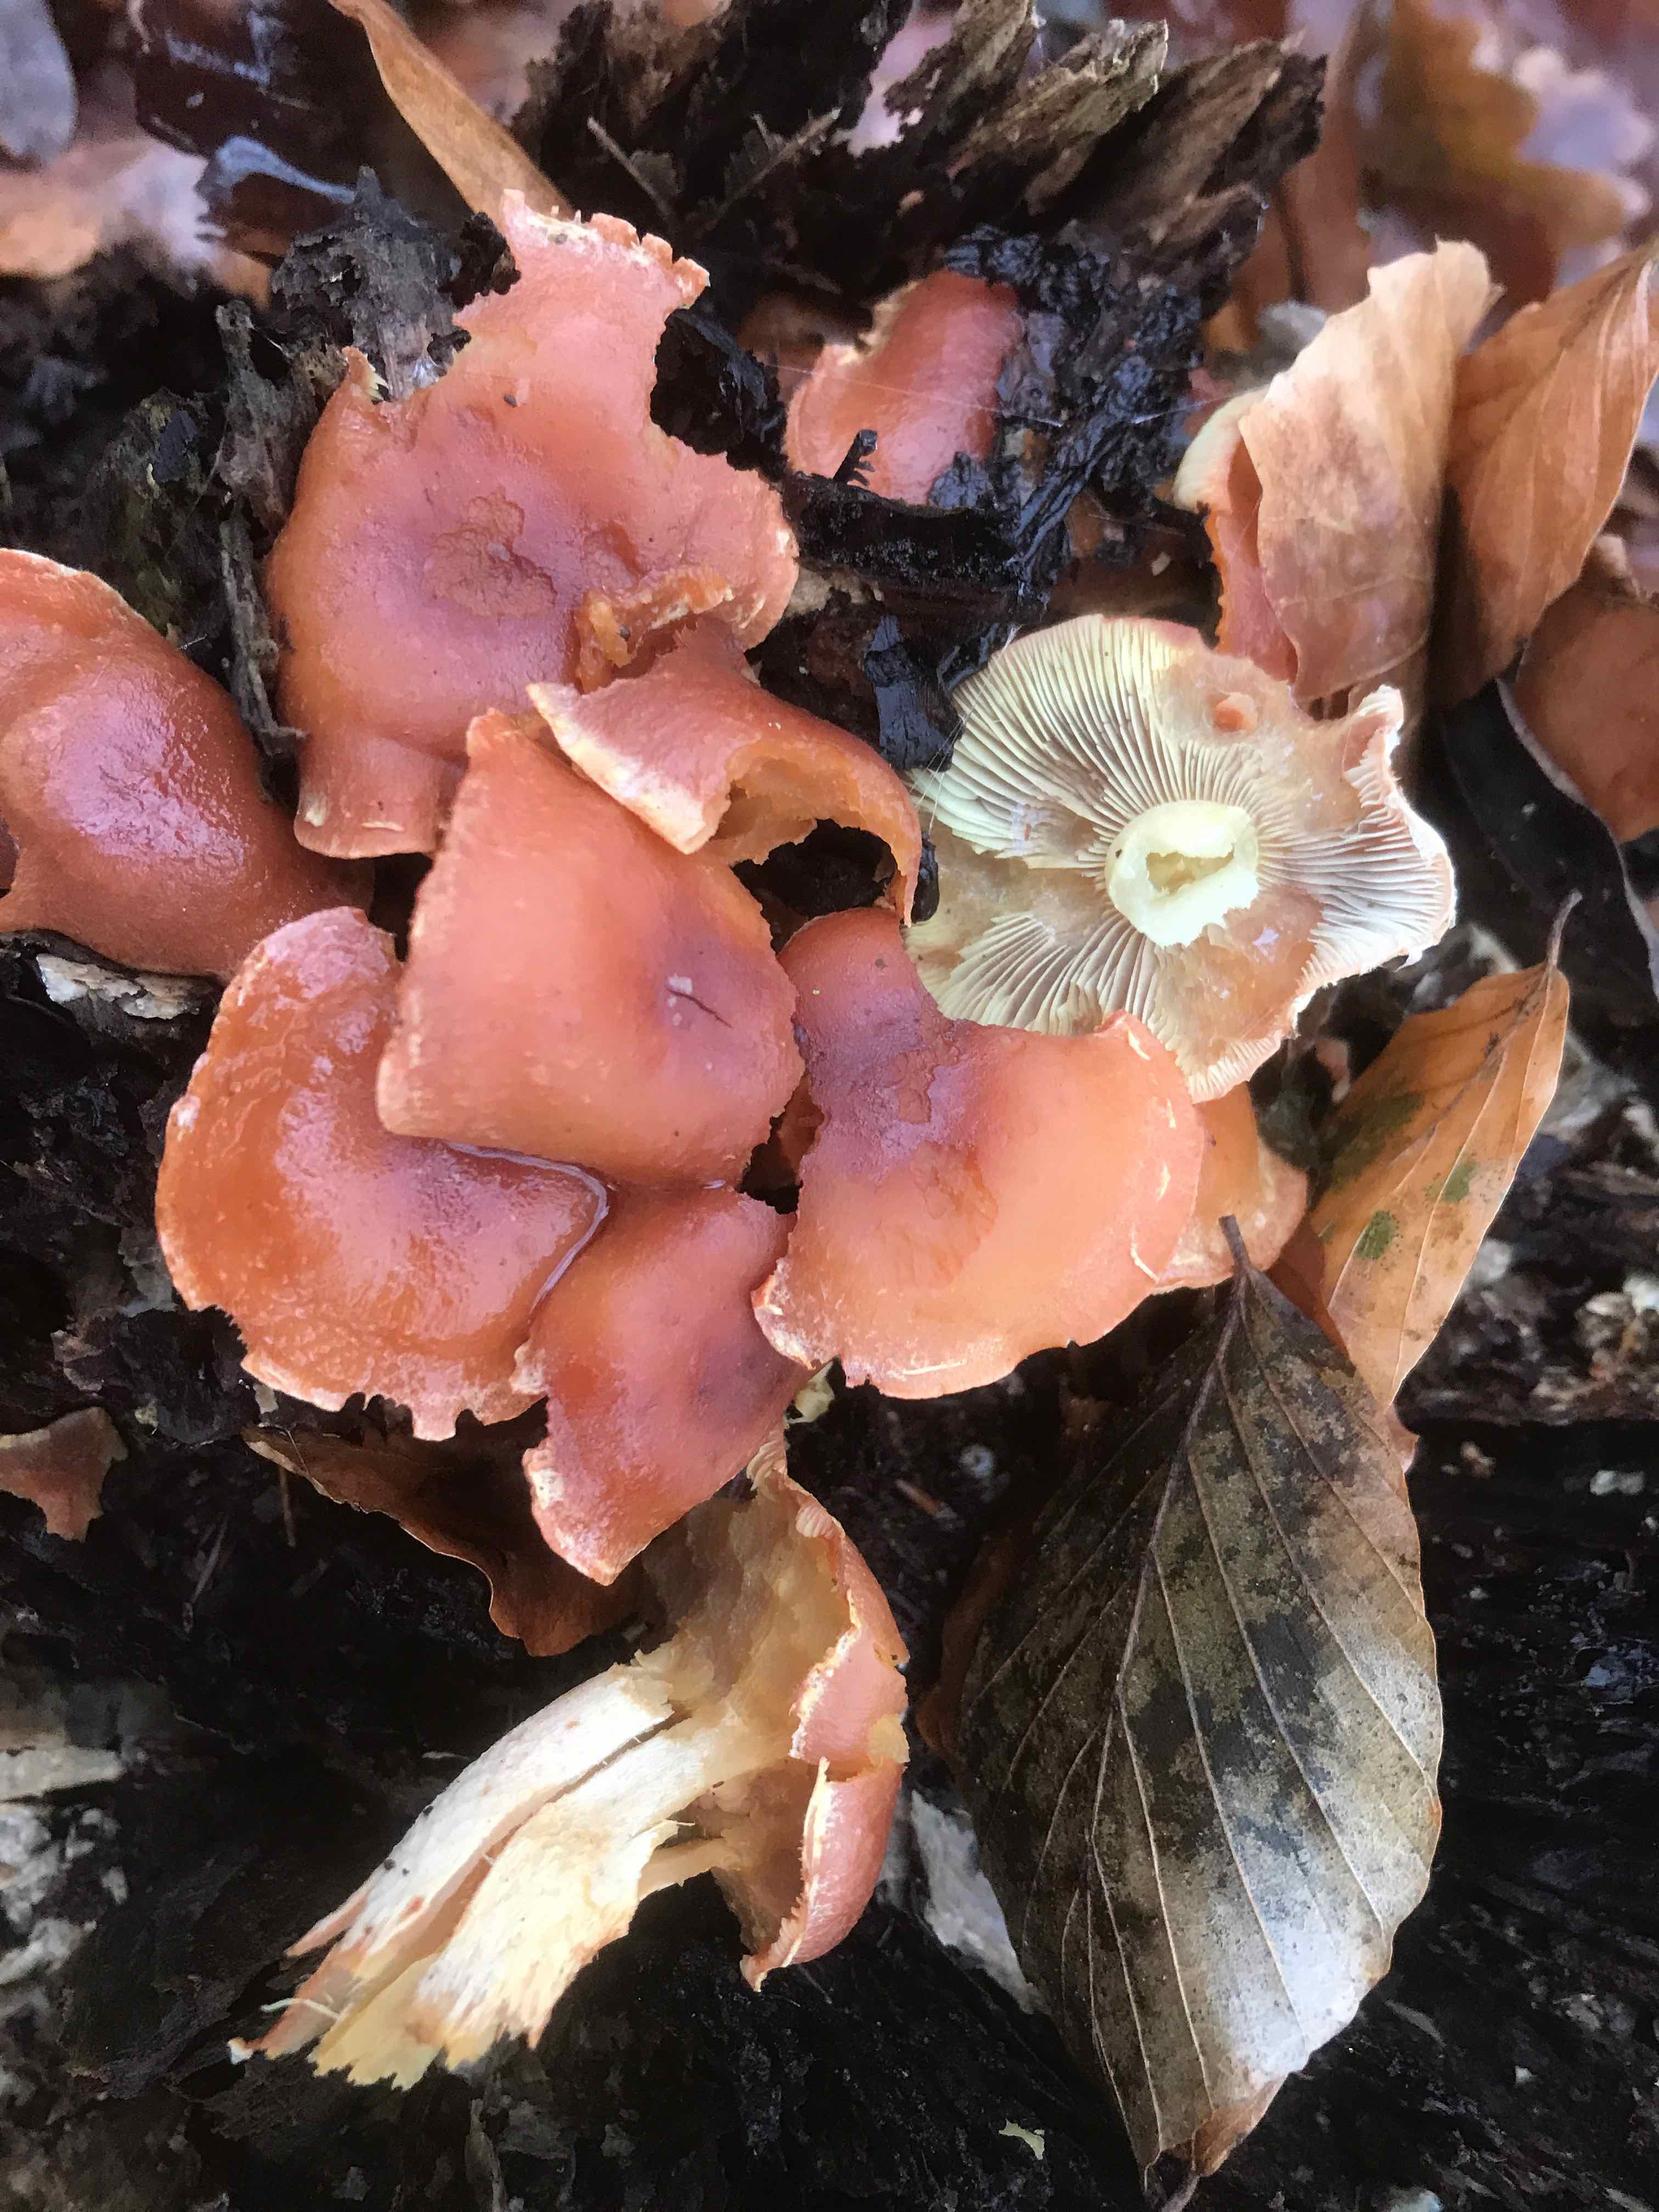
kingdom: Fungi
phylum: Basidiomycota
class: Agaricomycetes
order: Agaricales
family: Strophariaceae
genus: Hypholoma
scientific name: Hypholoma lateritium
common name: teglrød svovlhat
